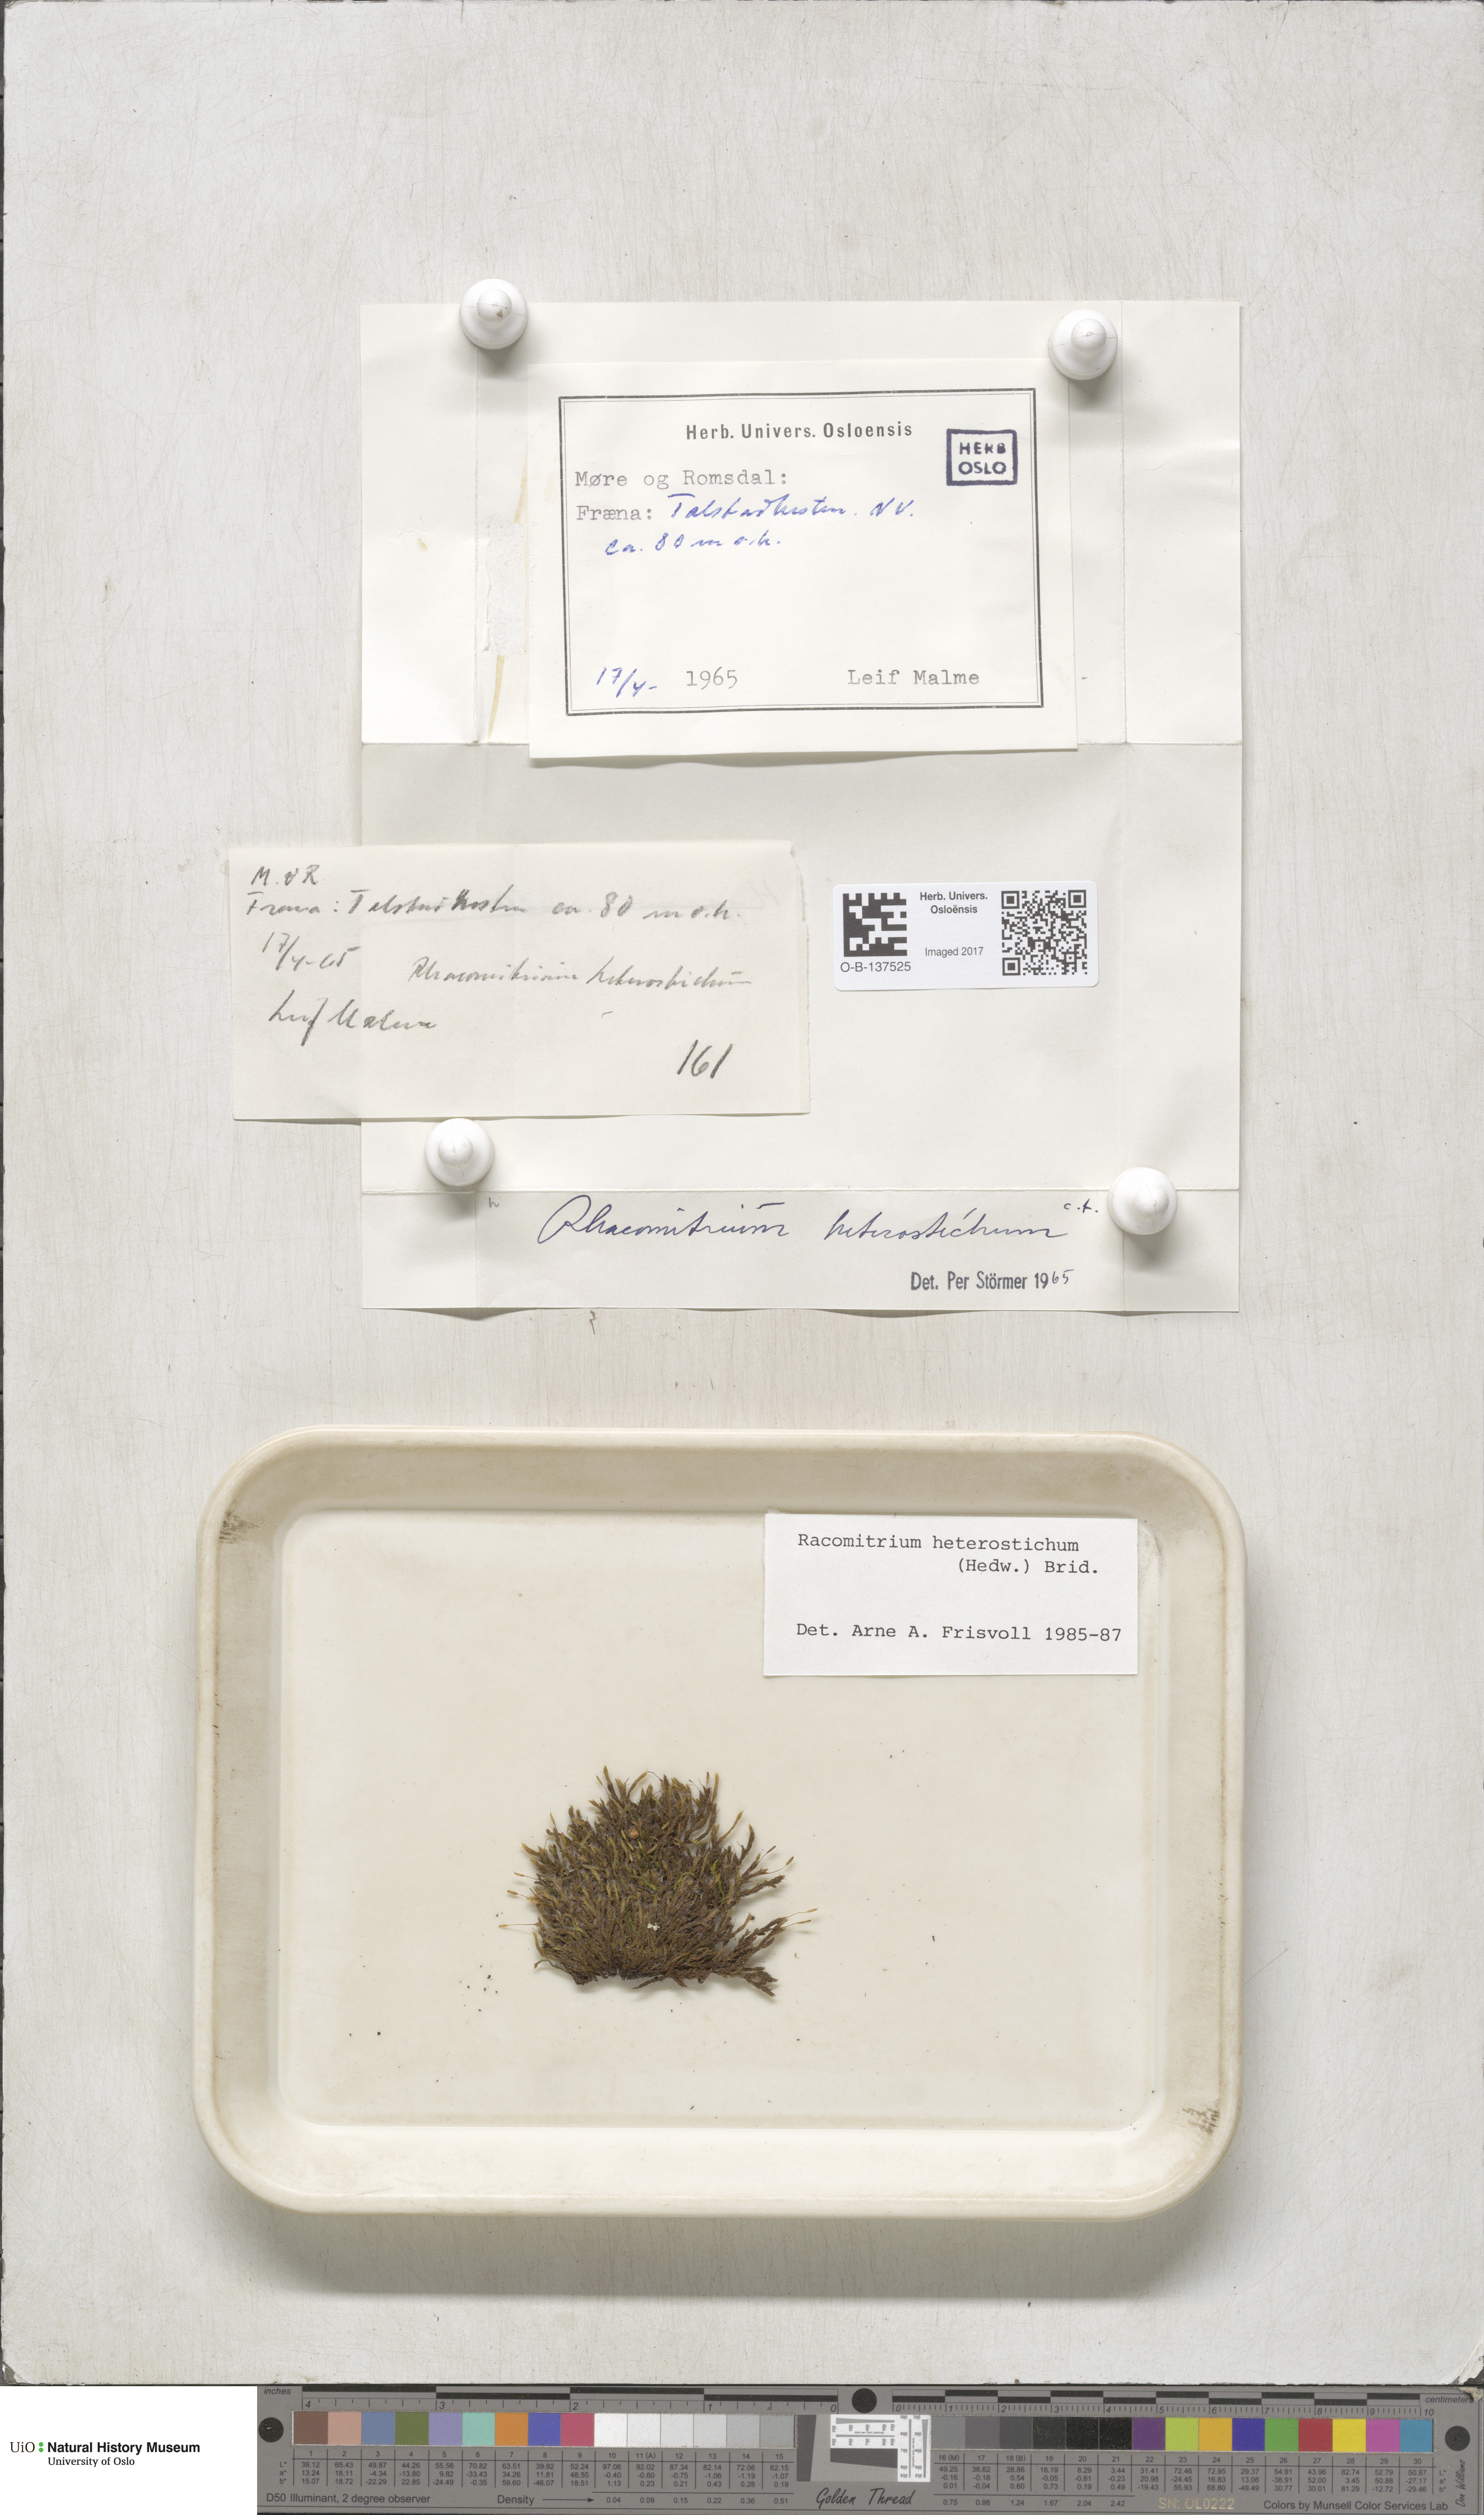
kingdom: Plantae
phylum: Bryophyta
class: Bryopsida
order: Grimmiales
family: Grimmiaceae
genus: Bucklandiella
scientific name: Bucklandiella heterosticha
